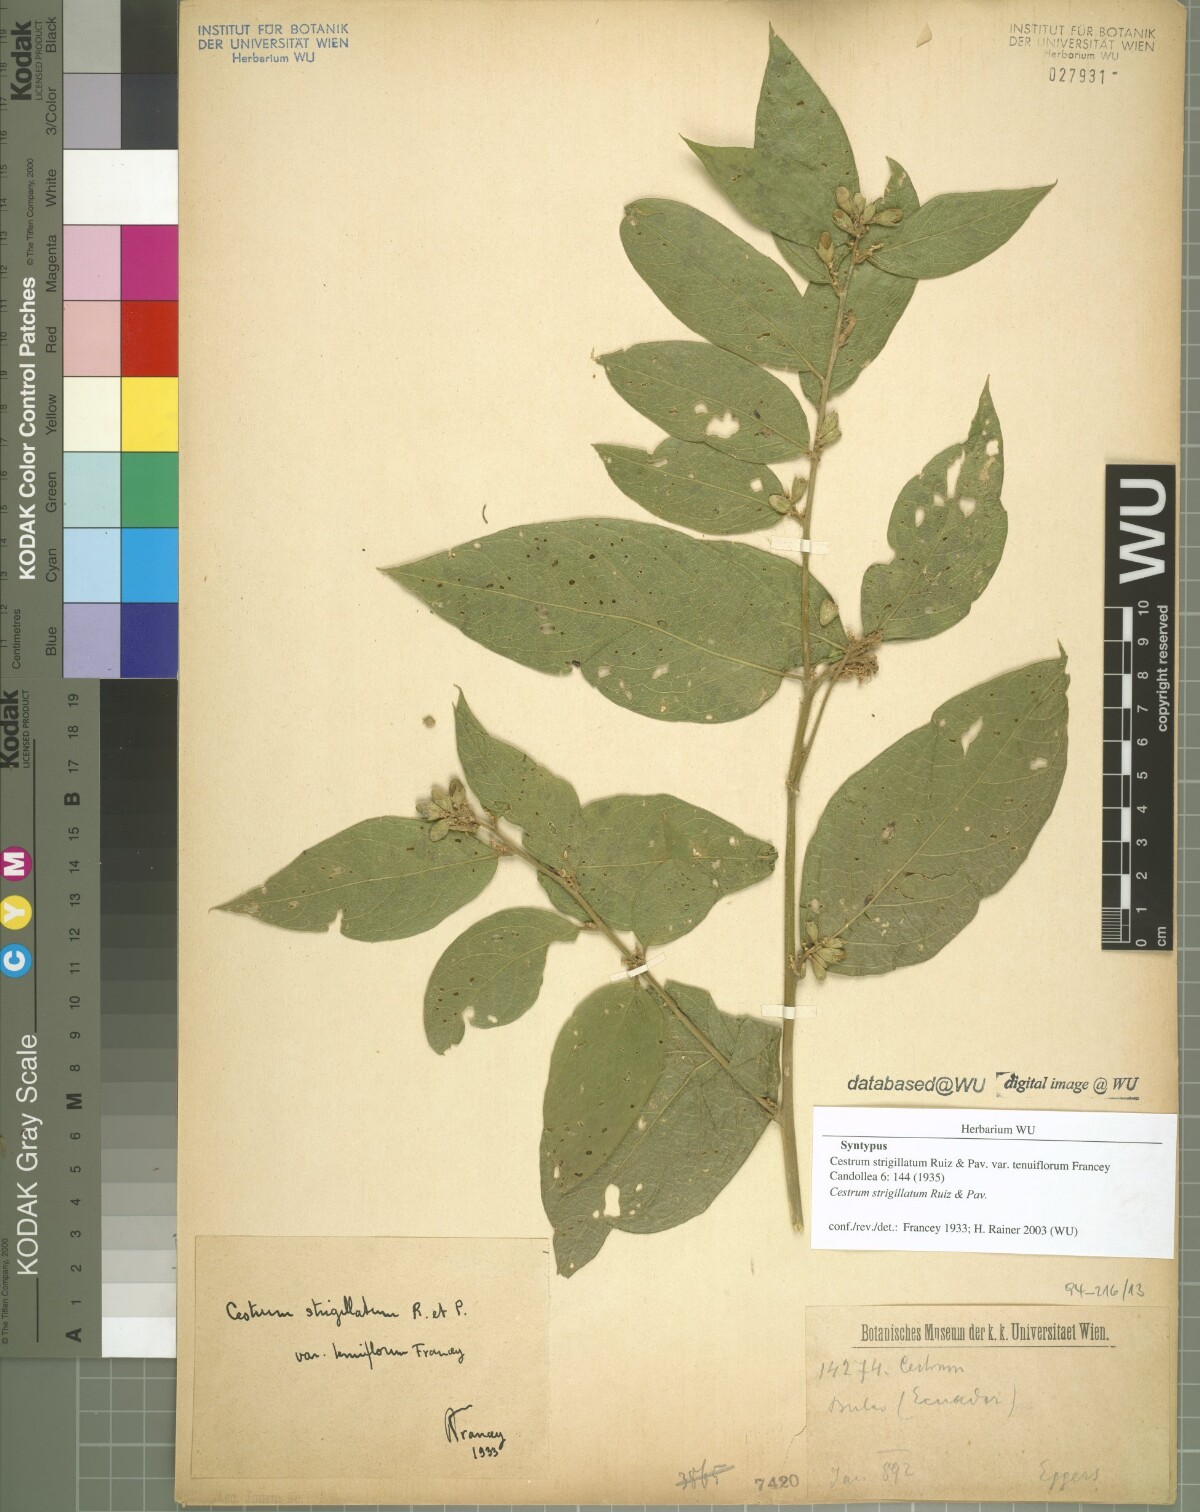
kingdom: Plantae
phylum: Tracheophyta
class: Magnoliopsida
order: Solanales
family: Solanaceae
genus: Cestrum
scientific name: Cestrum strigillatum
